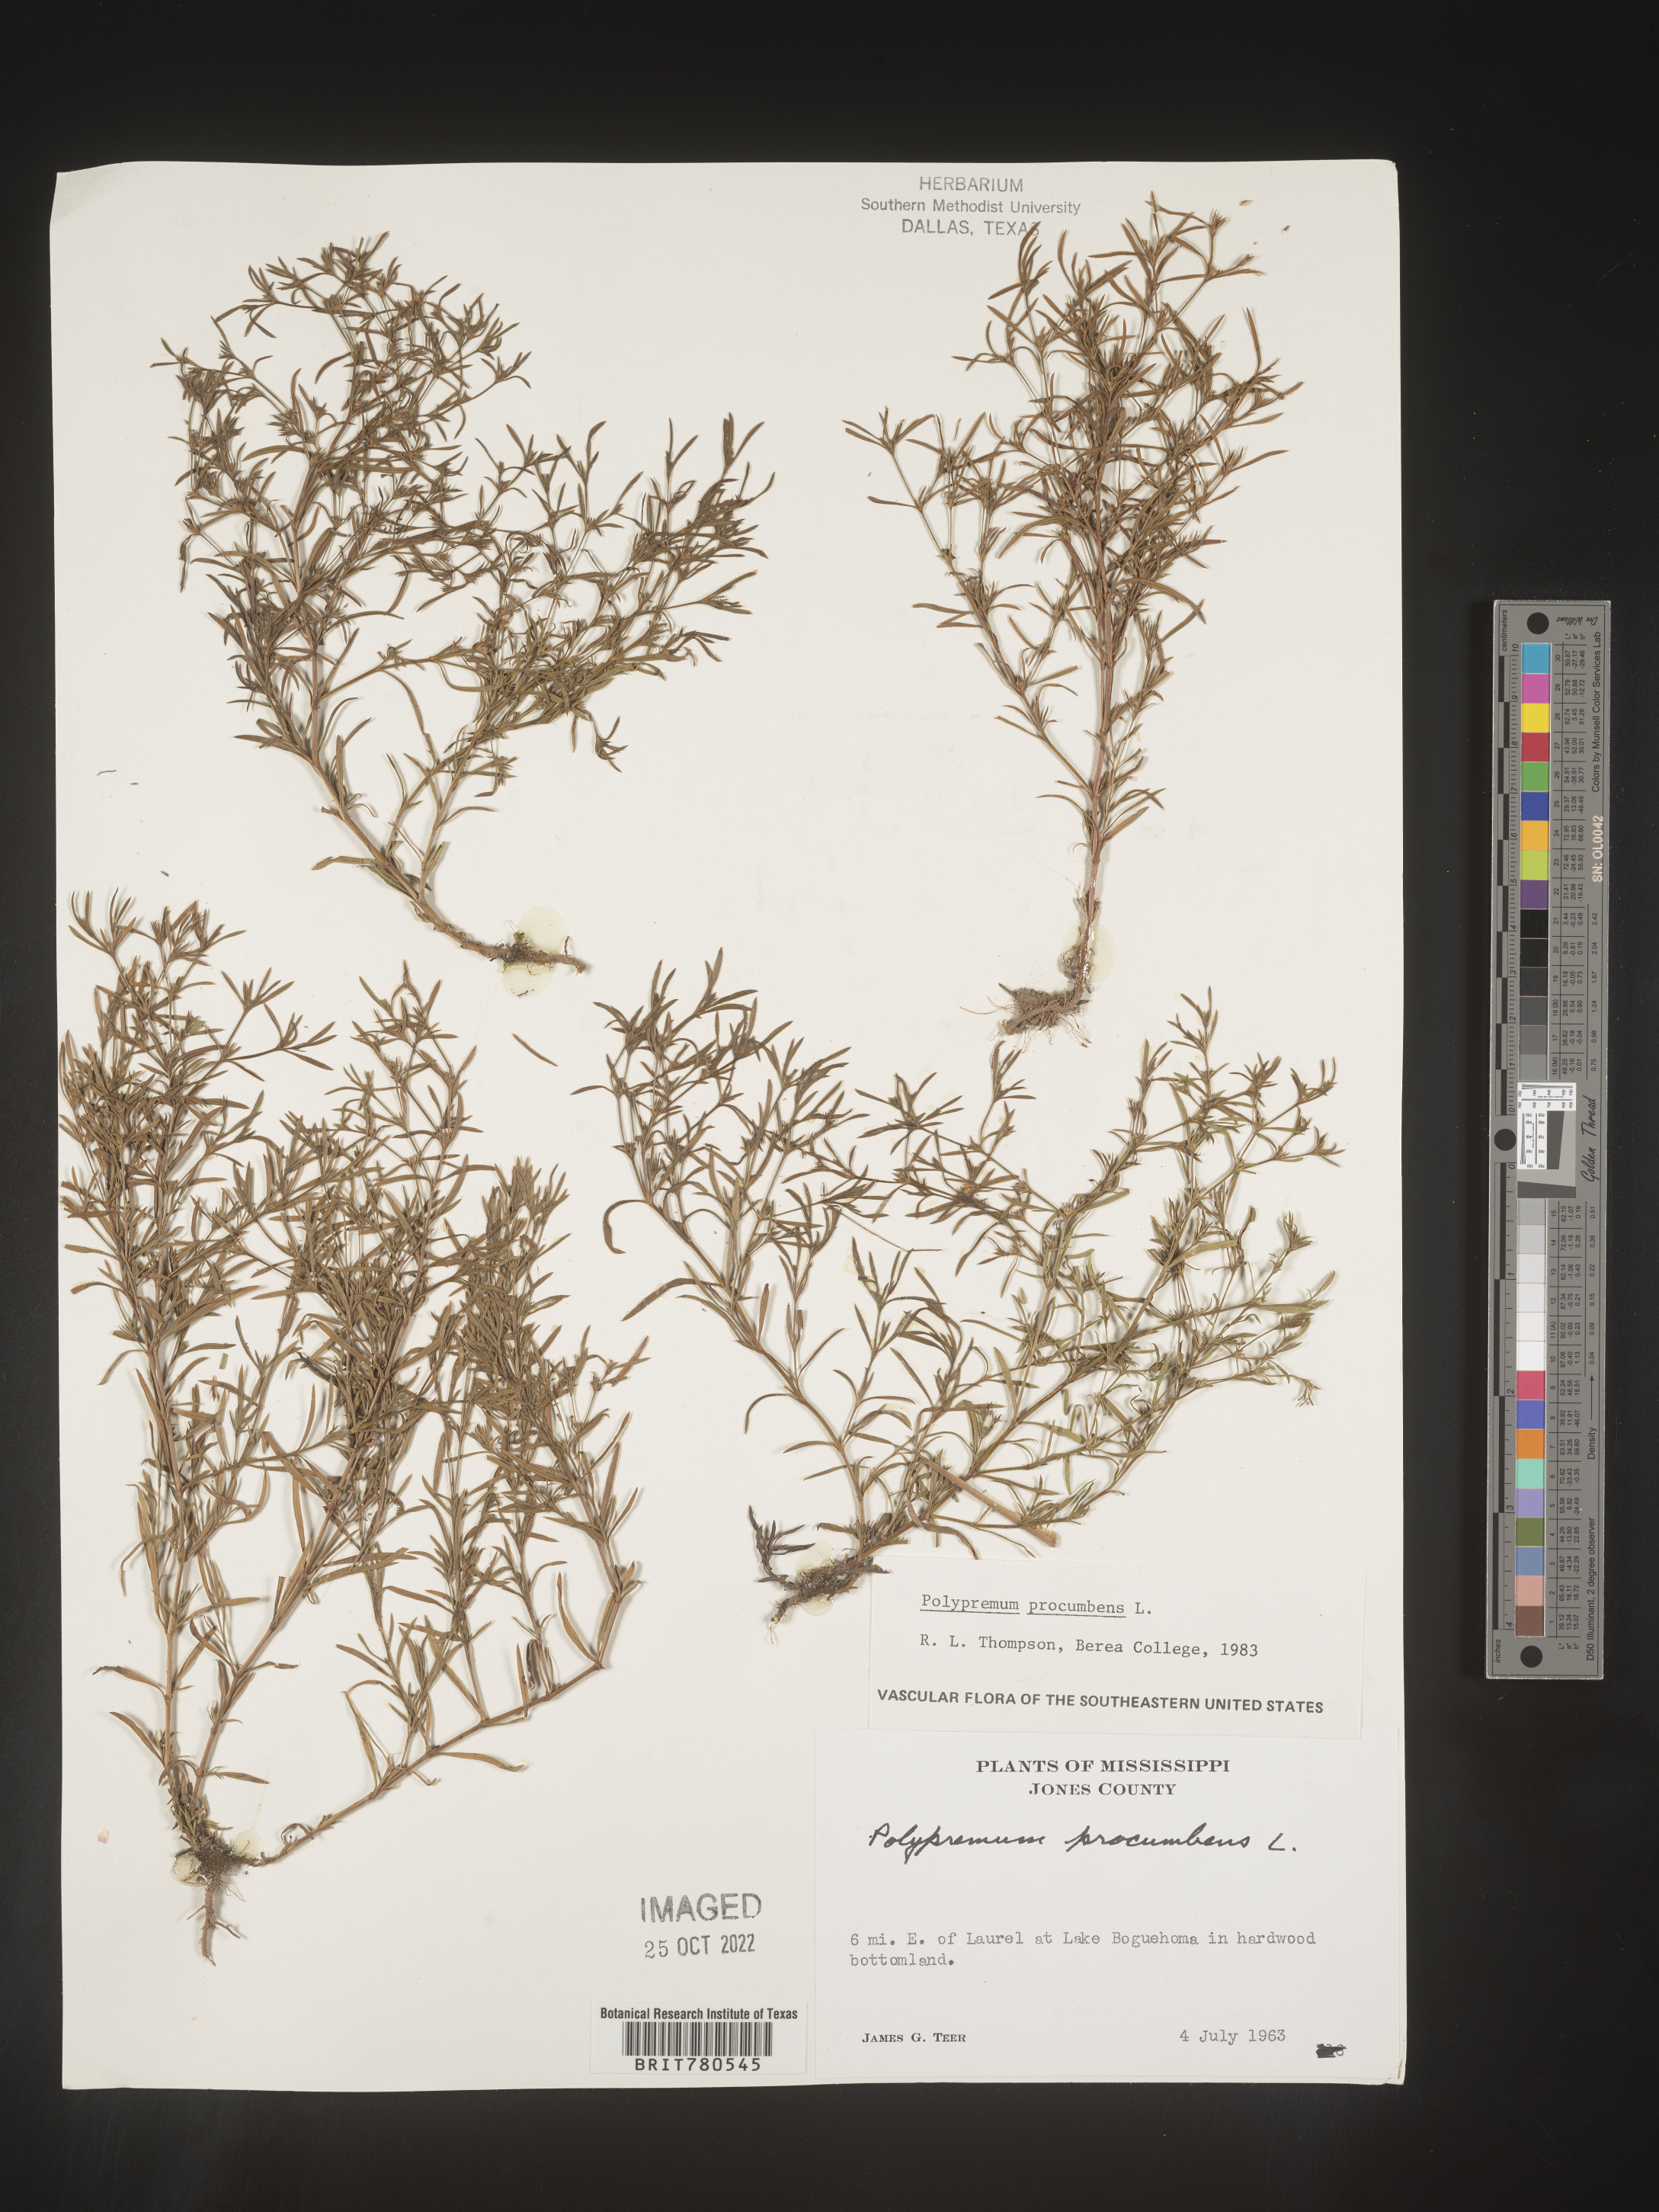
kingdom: Plantae
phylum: Tracheophyta
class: Magnoliopsida
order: Lamiales
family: Tetrachondraceae
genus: Polypremum
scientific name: Polypremum procumbens
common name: Juniper-leaf
